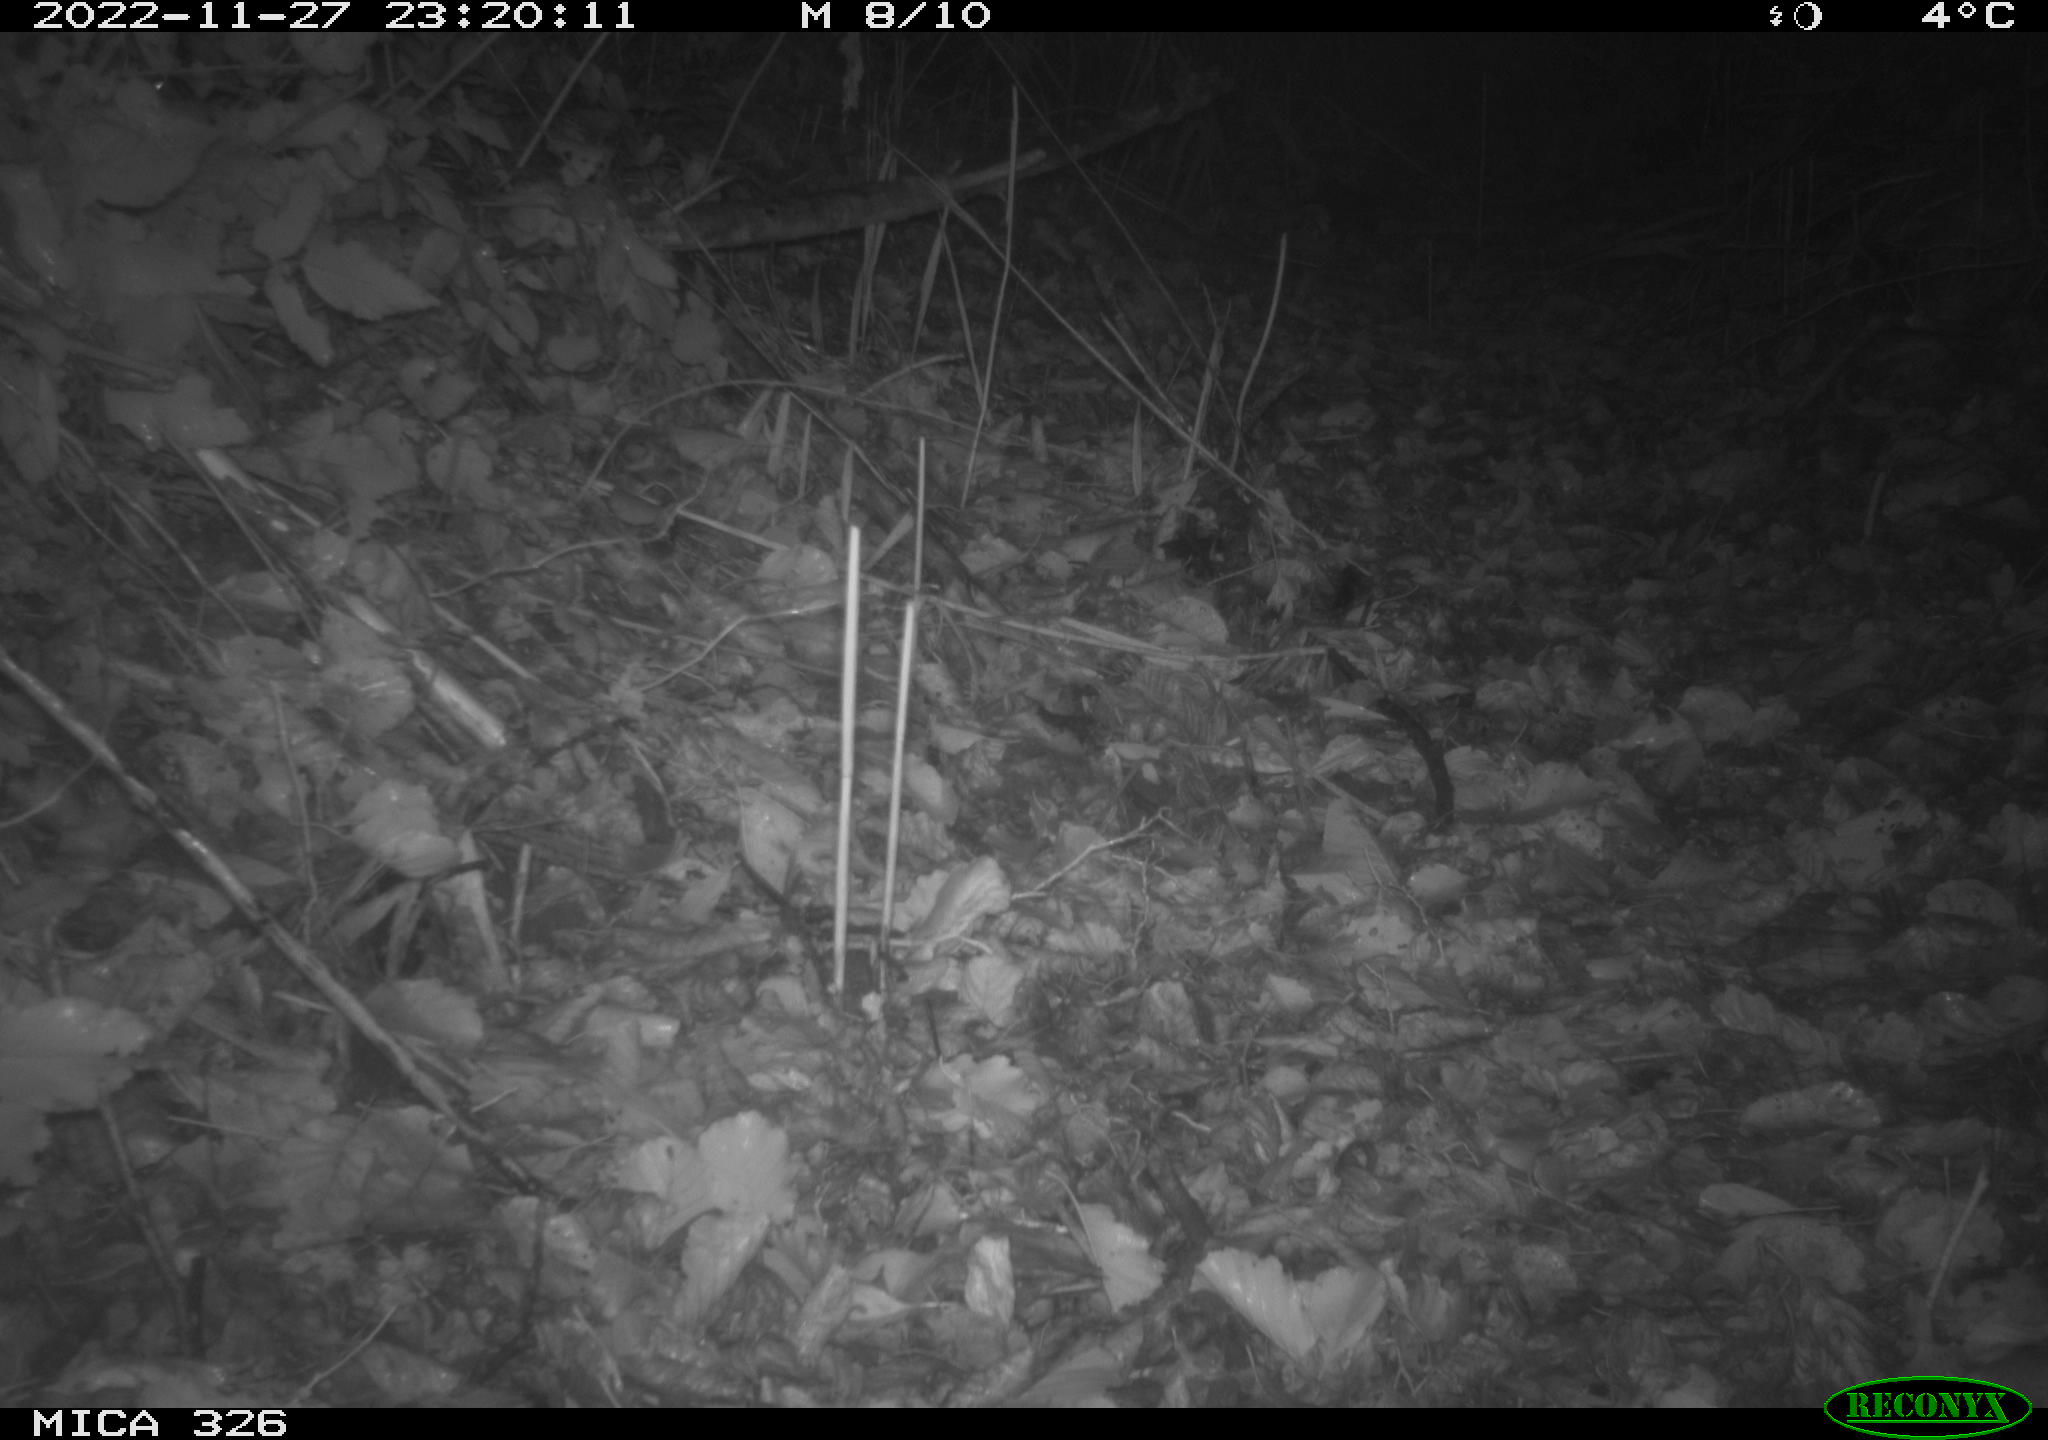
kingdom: Animalia
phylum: Chordata
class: Mammalia
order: Rodentia
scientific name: Rodentia
